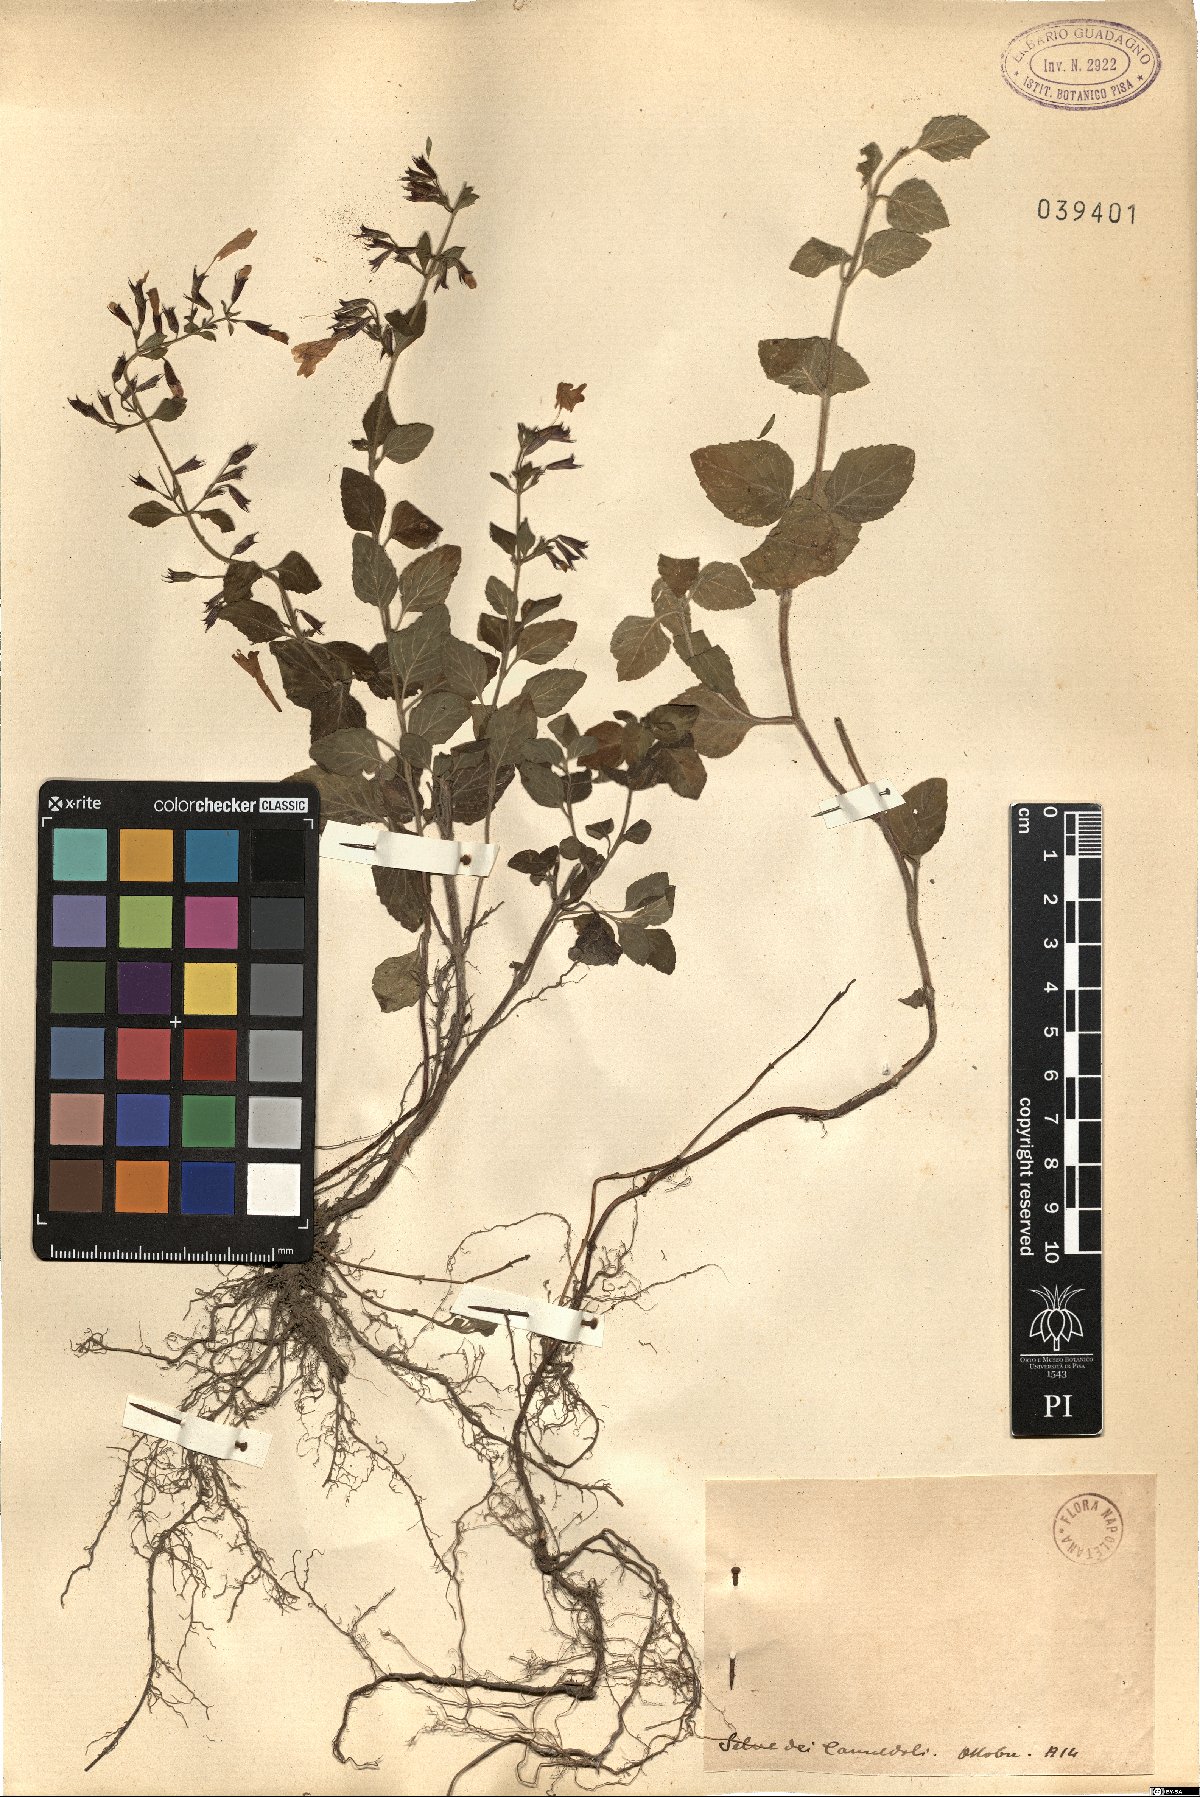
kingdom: Plantae
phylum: Tracheophyta
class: Magnoliopsida
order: Lamiales
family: Lamiaceae
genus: Calamintha
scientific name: Calamintha
